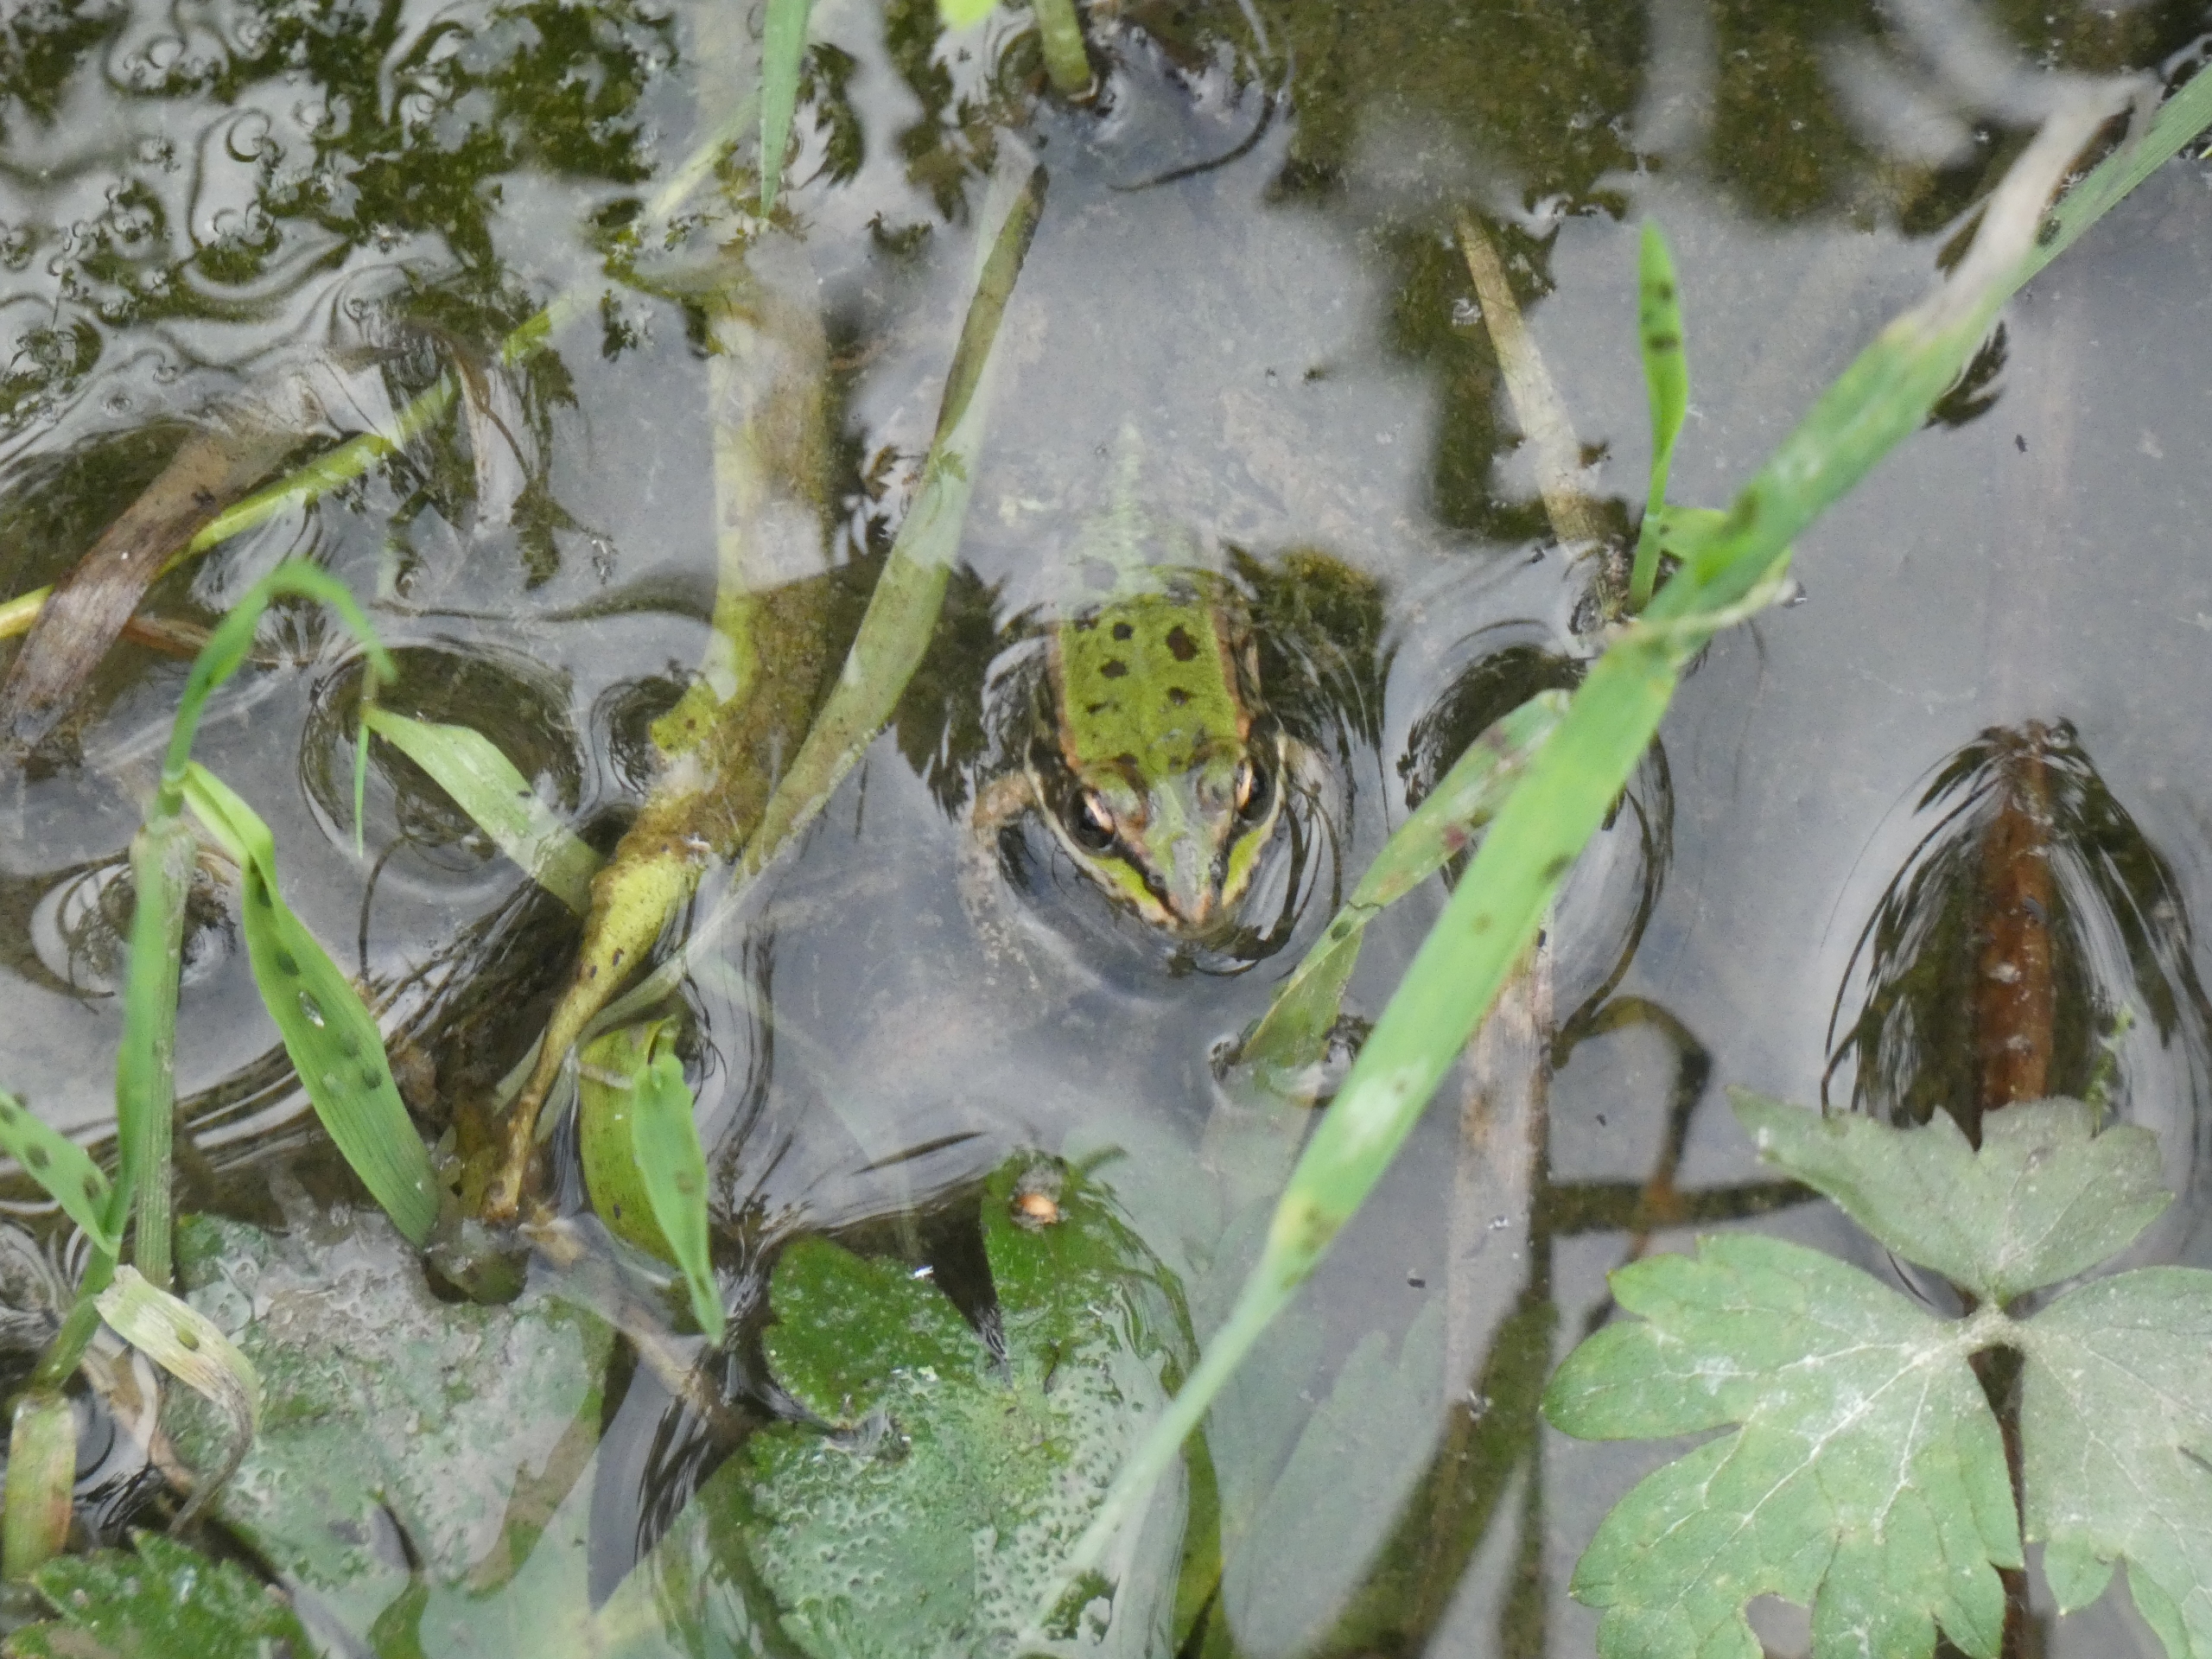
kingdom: Animalia
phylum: Chordata
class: Amphibia
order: Anura
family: Ranidae
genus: Pelophylax
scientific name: Pelophylax lessonae
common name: Grøn frø
